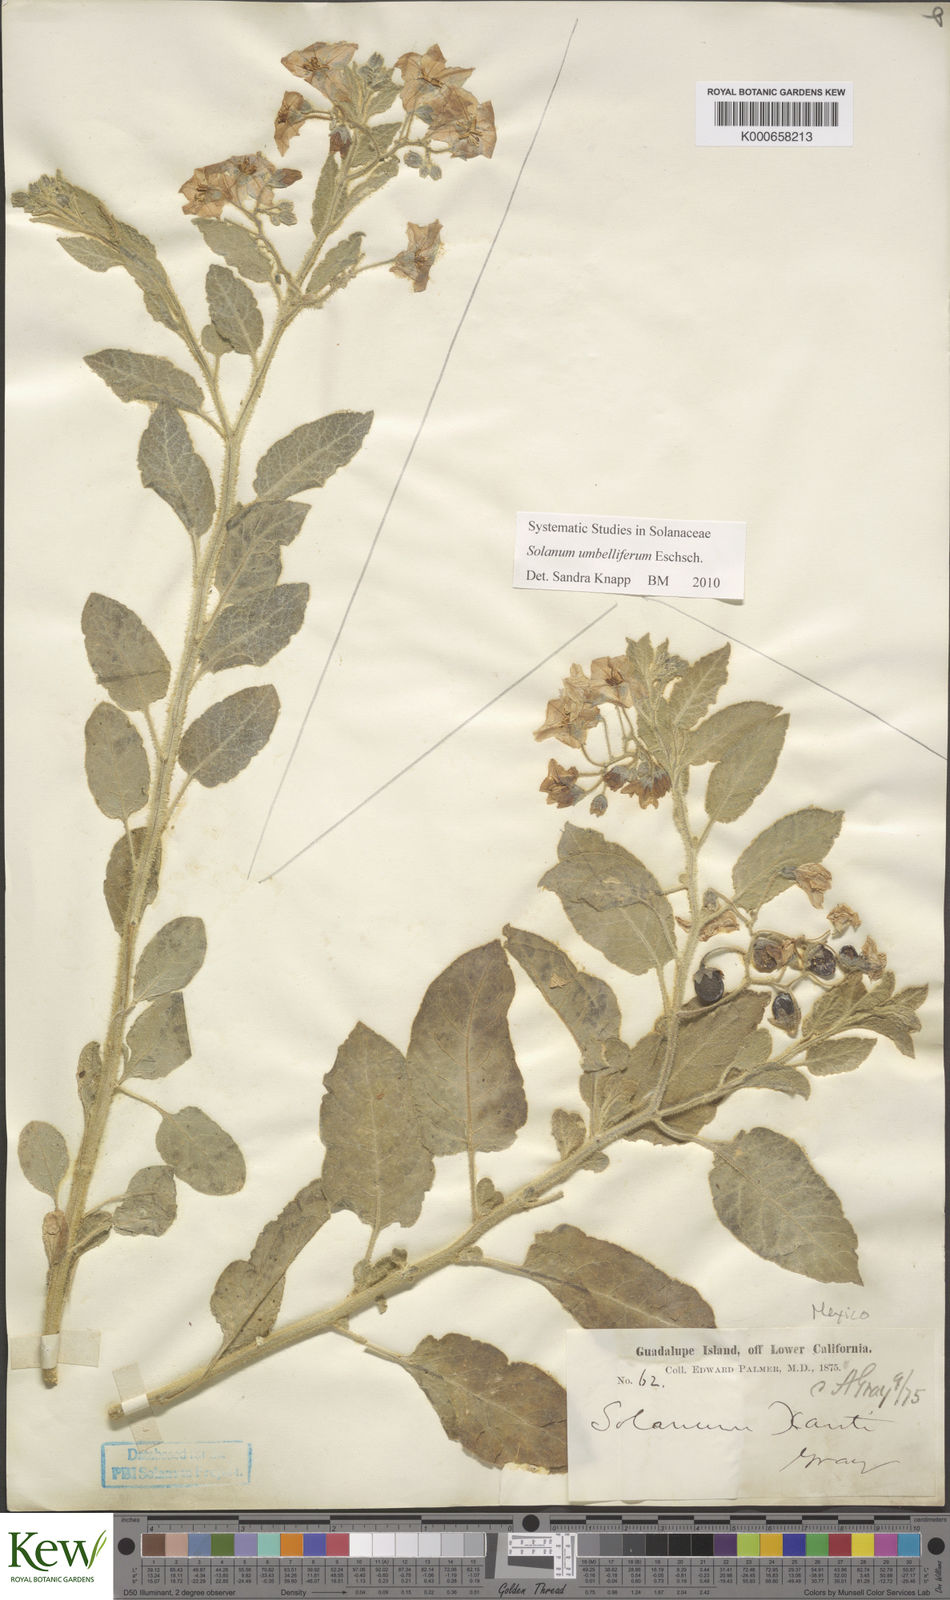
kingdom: Plantae
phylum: Tracheophyta
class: Magnoliopsida
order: Solanales
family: Solanaceae
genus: Solanum
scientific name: Solanum umbelliferum
